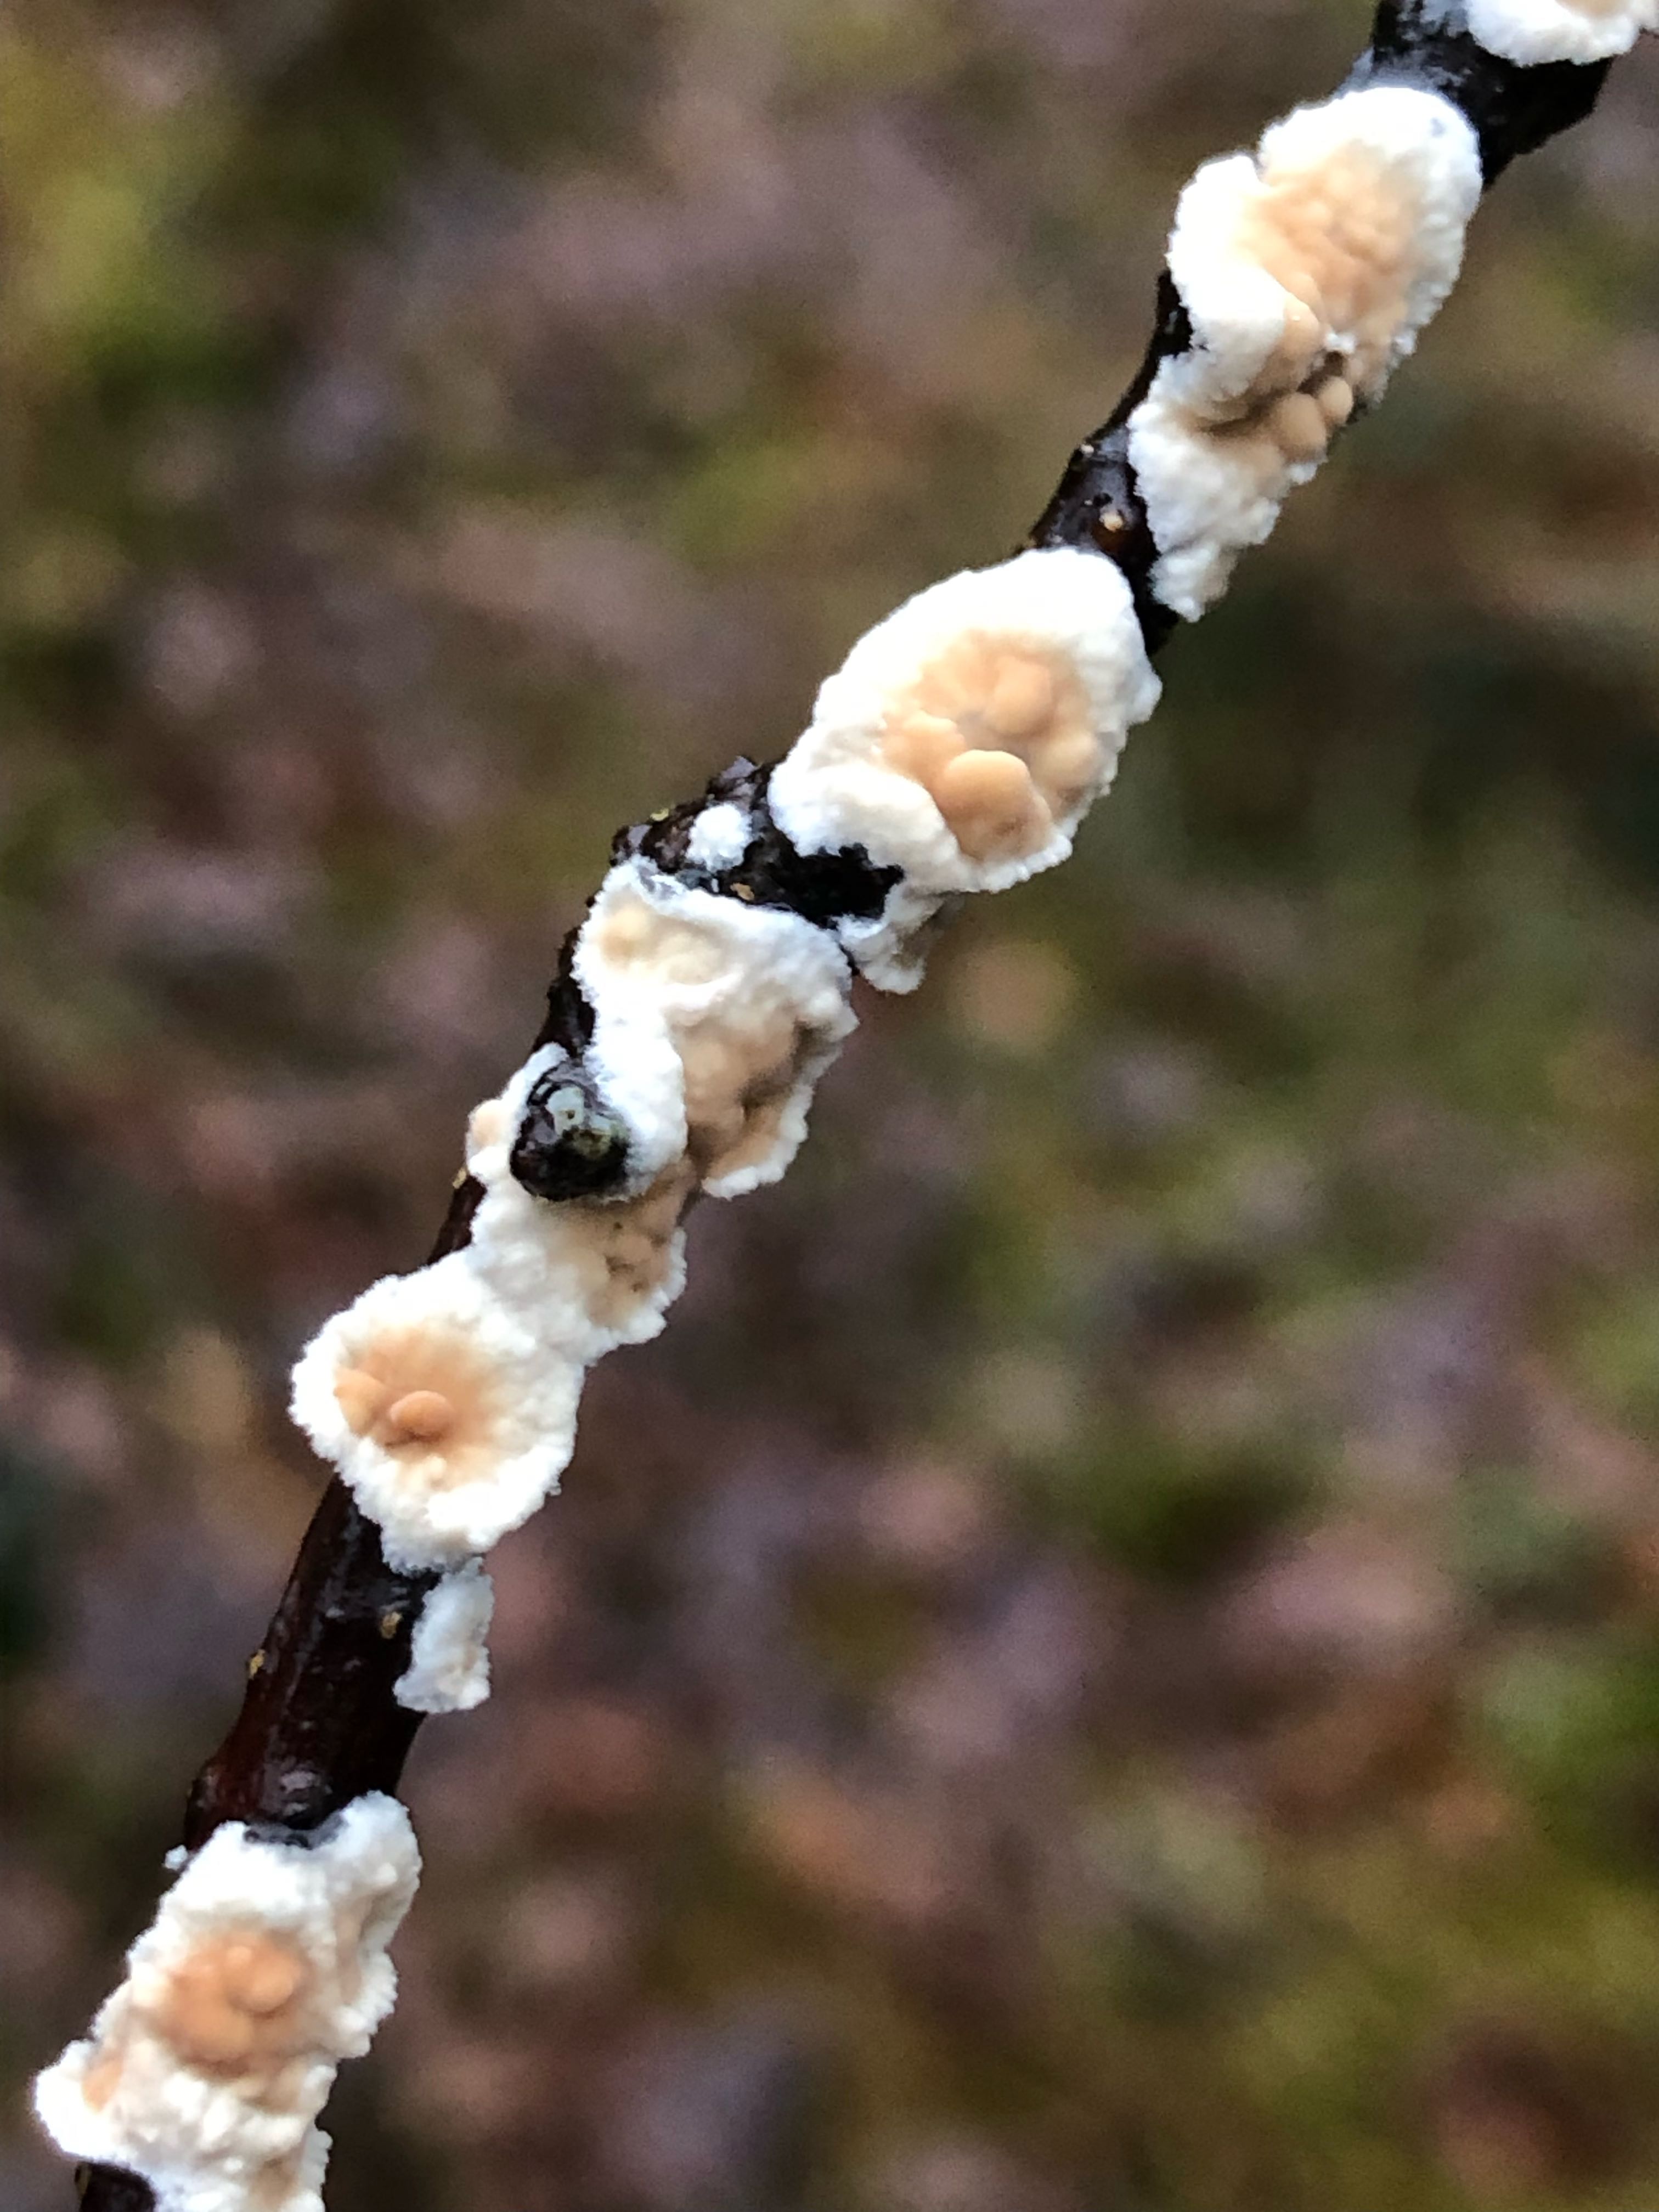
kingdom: Fungi
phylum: Basidiomycota
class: Agaricomycetes
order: Polyporales
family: Irpicaceae
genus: Byssomerulius
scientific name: Byssomerulius corium
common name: læder-åresvamp
